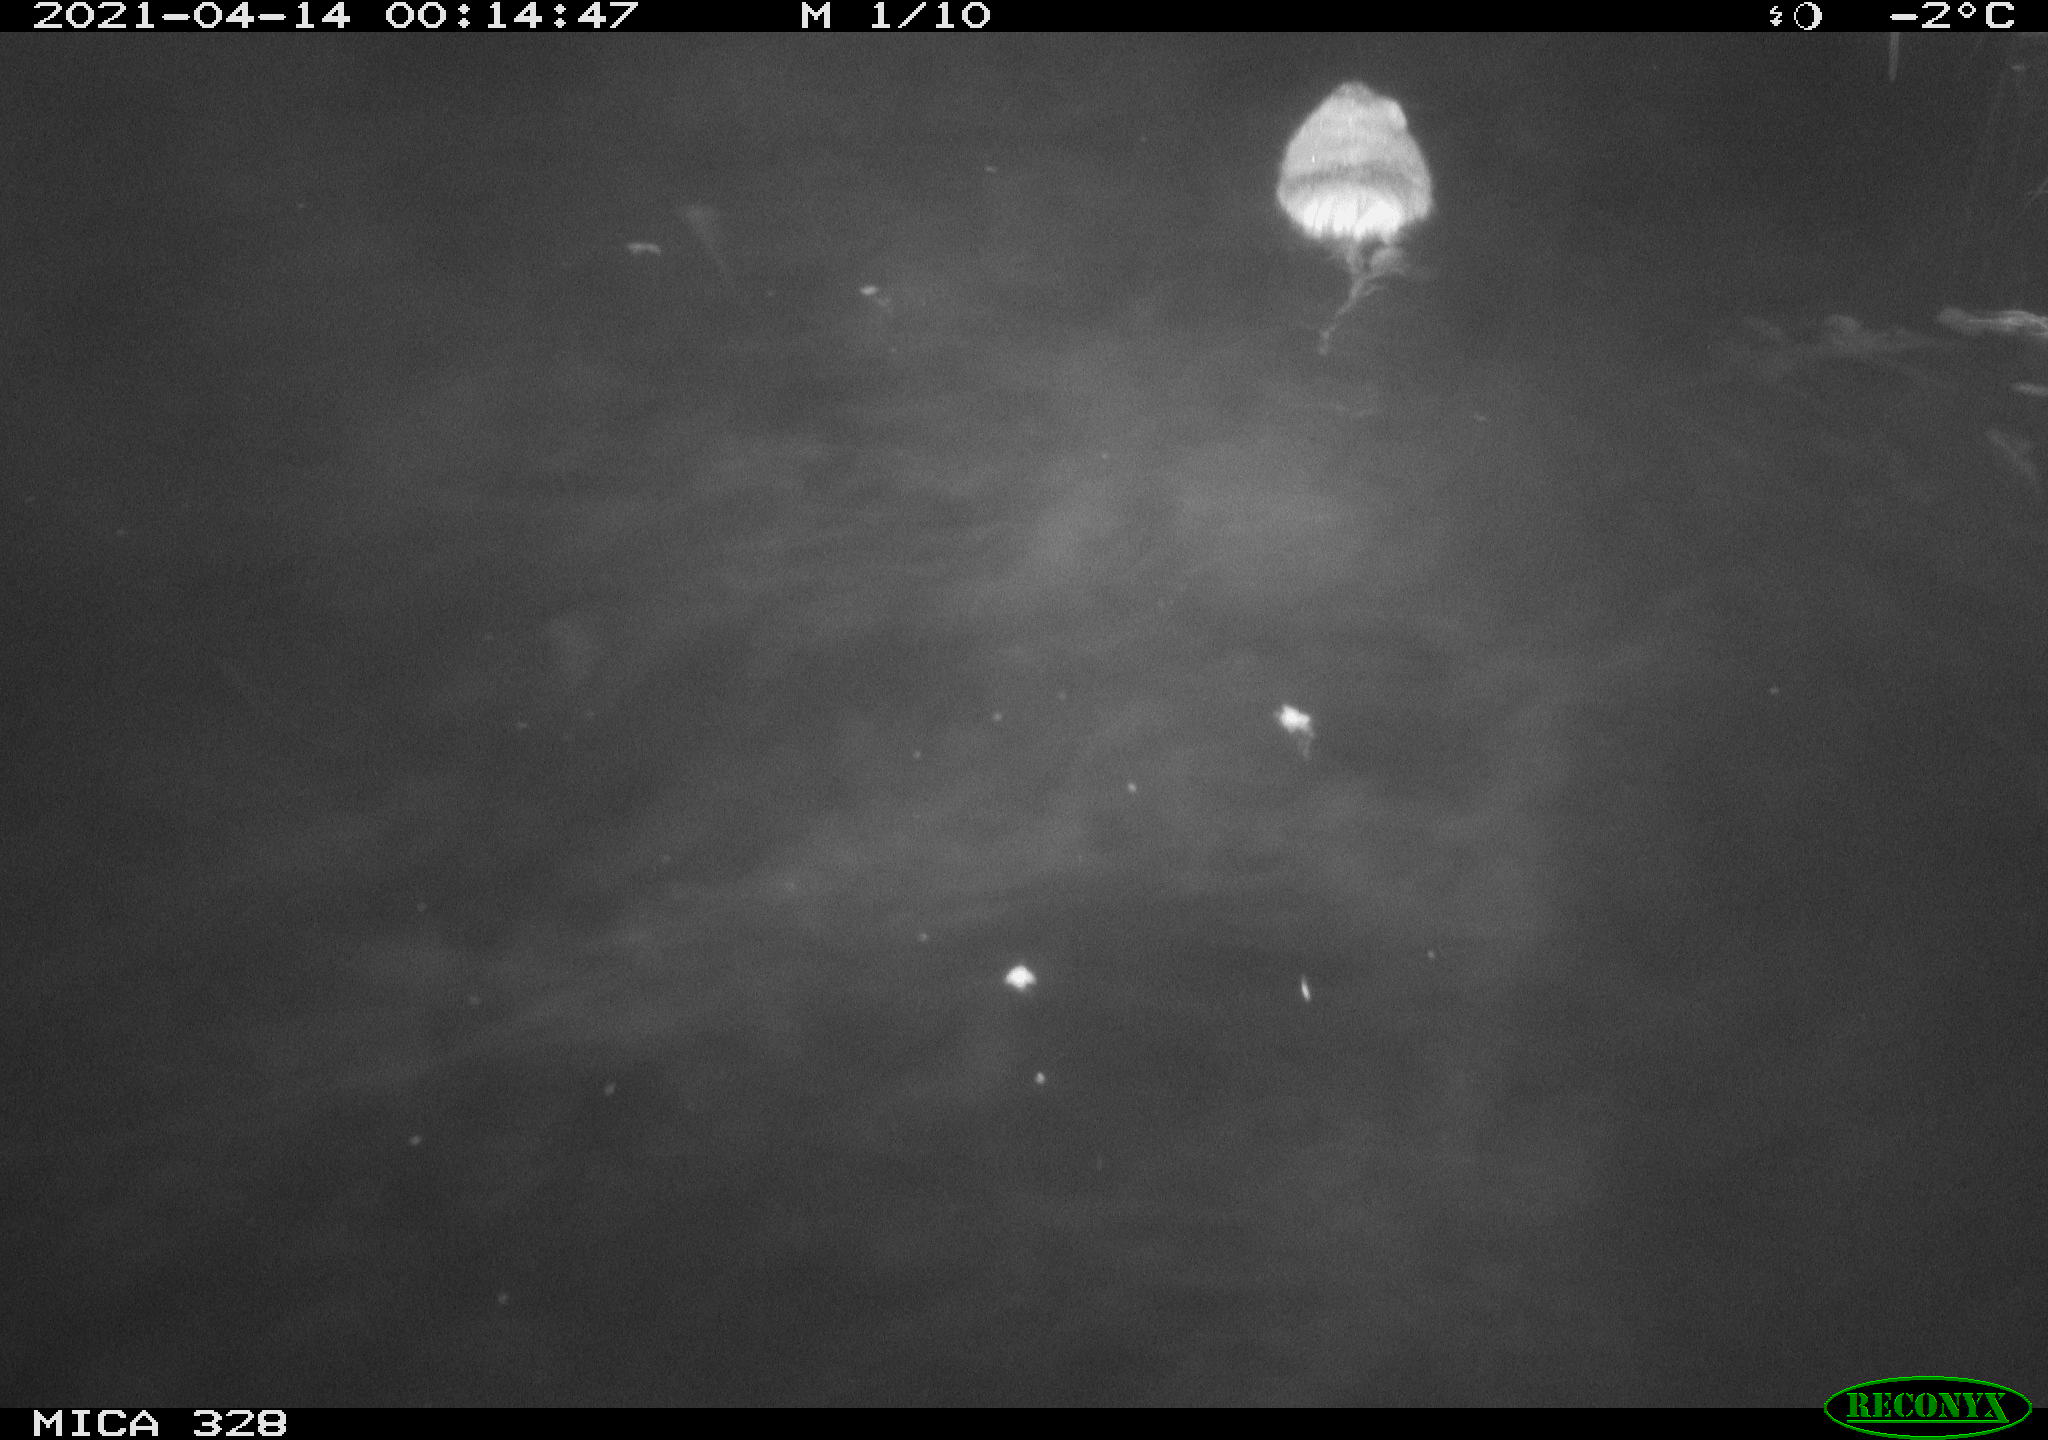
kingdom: Animalia
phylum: Chordata
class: Mammalia
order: Rodentia
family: Cricetidae
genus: Ondatra
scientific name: Ondatra zibethicus
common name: Muskrat
